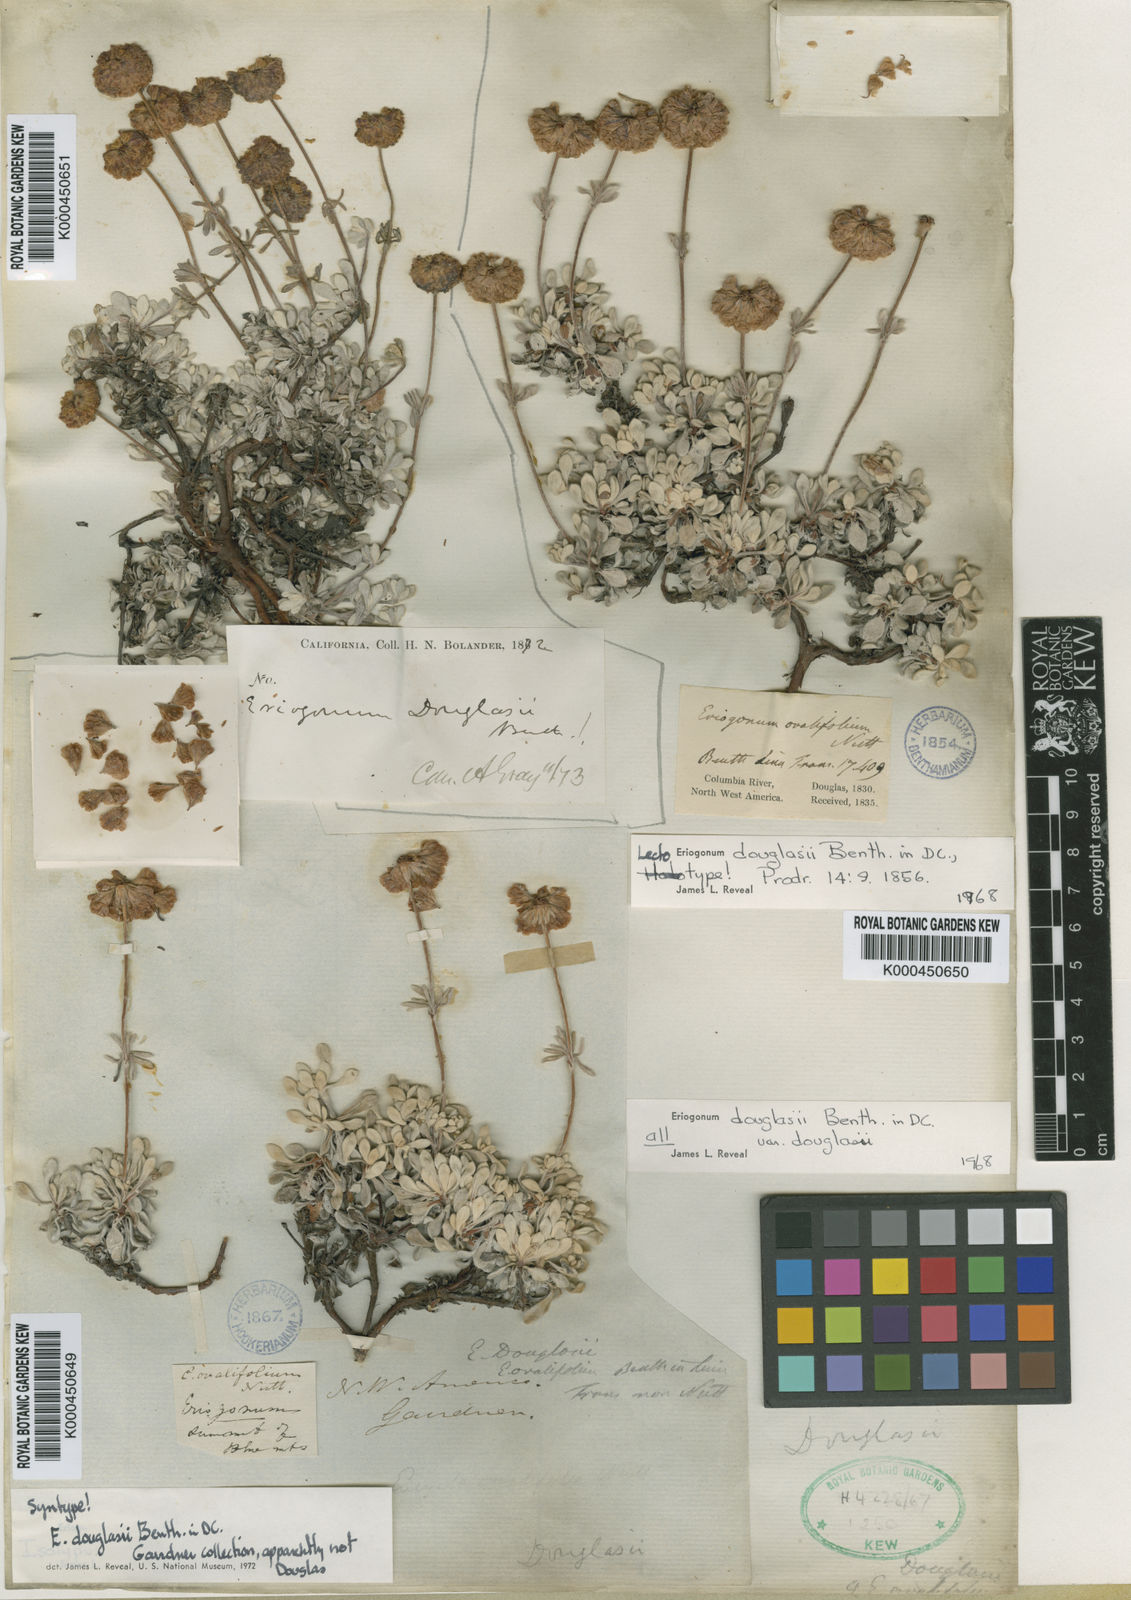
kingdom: Plantae
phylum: Tracheophyta
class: Magnoliopsida
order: Caryophyllales
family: Polygonaceae
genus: Eriogonum
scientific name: Eriogonum douglasii
